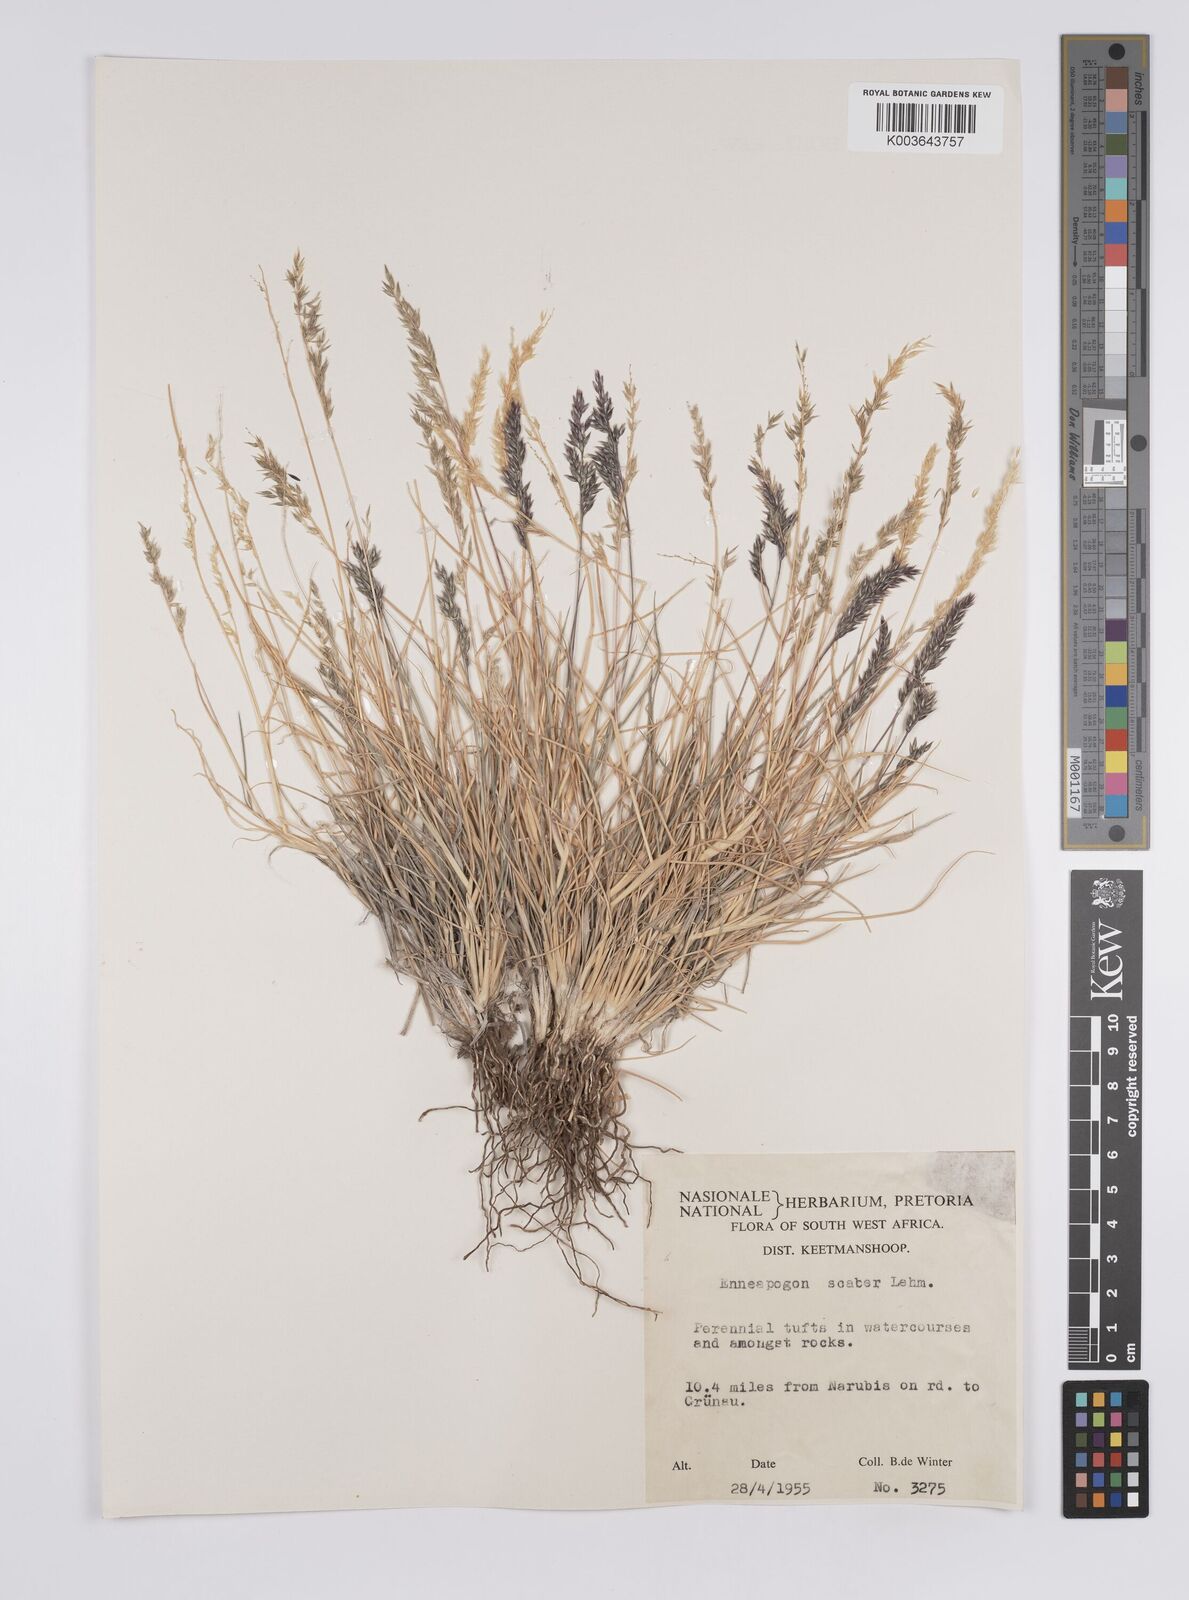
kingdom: Plantae
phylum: Tracheophyta
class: Liliopsida
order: Poales
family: Poaceae
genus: Enneapogon
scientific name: Enneapogon scaber
